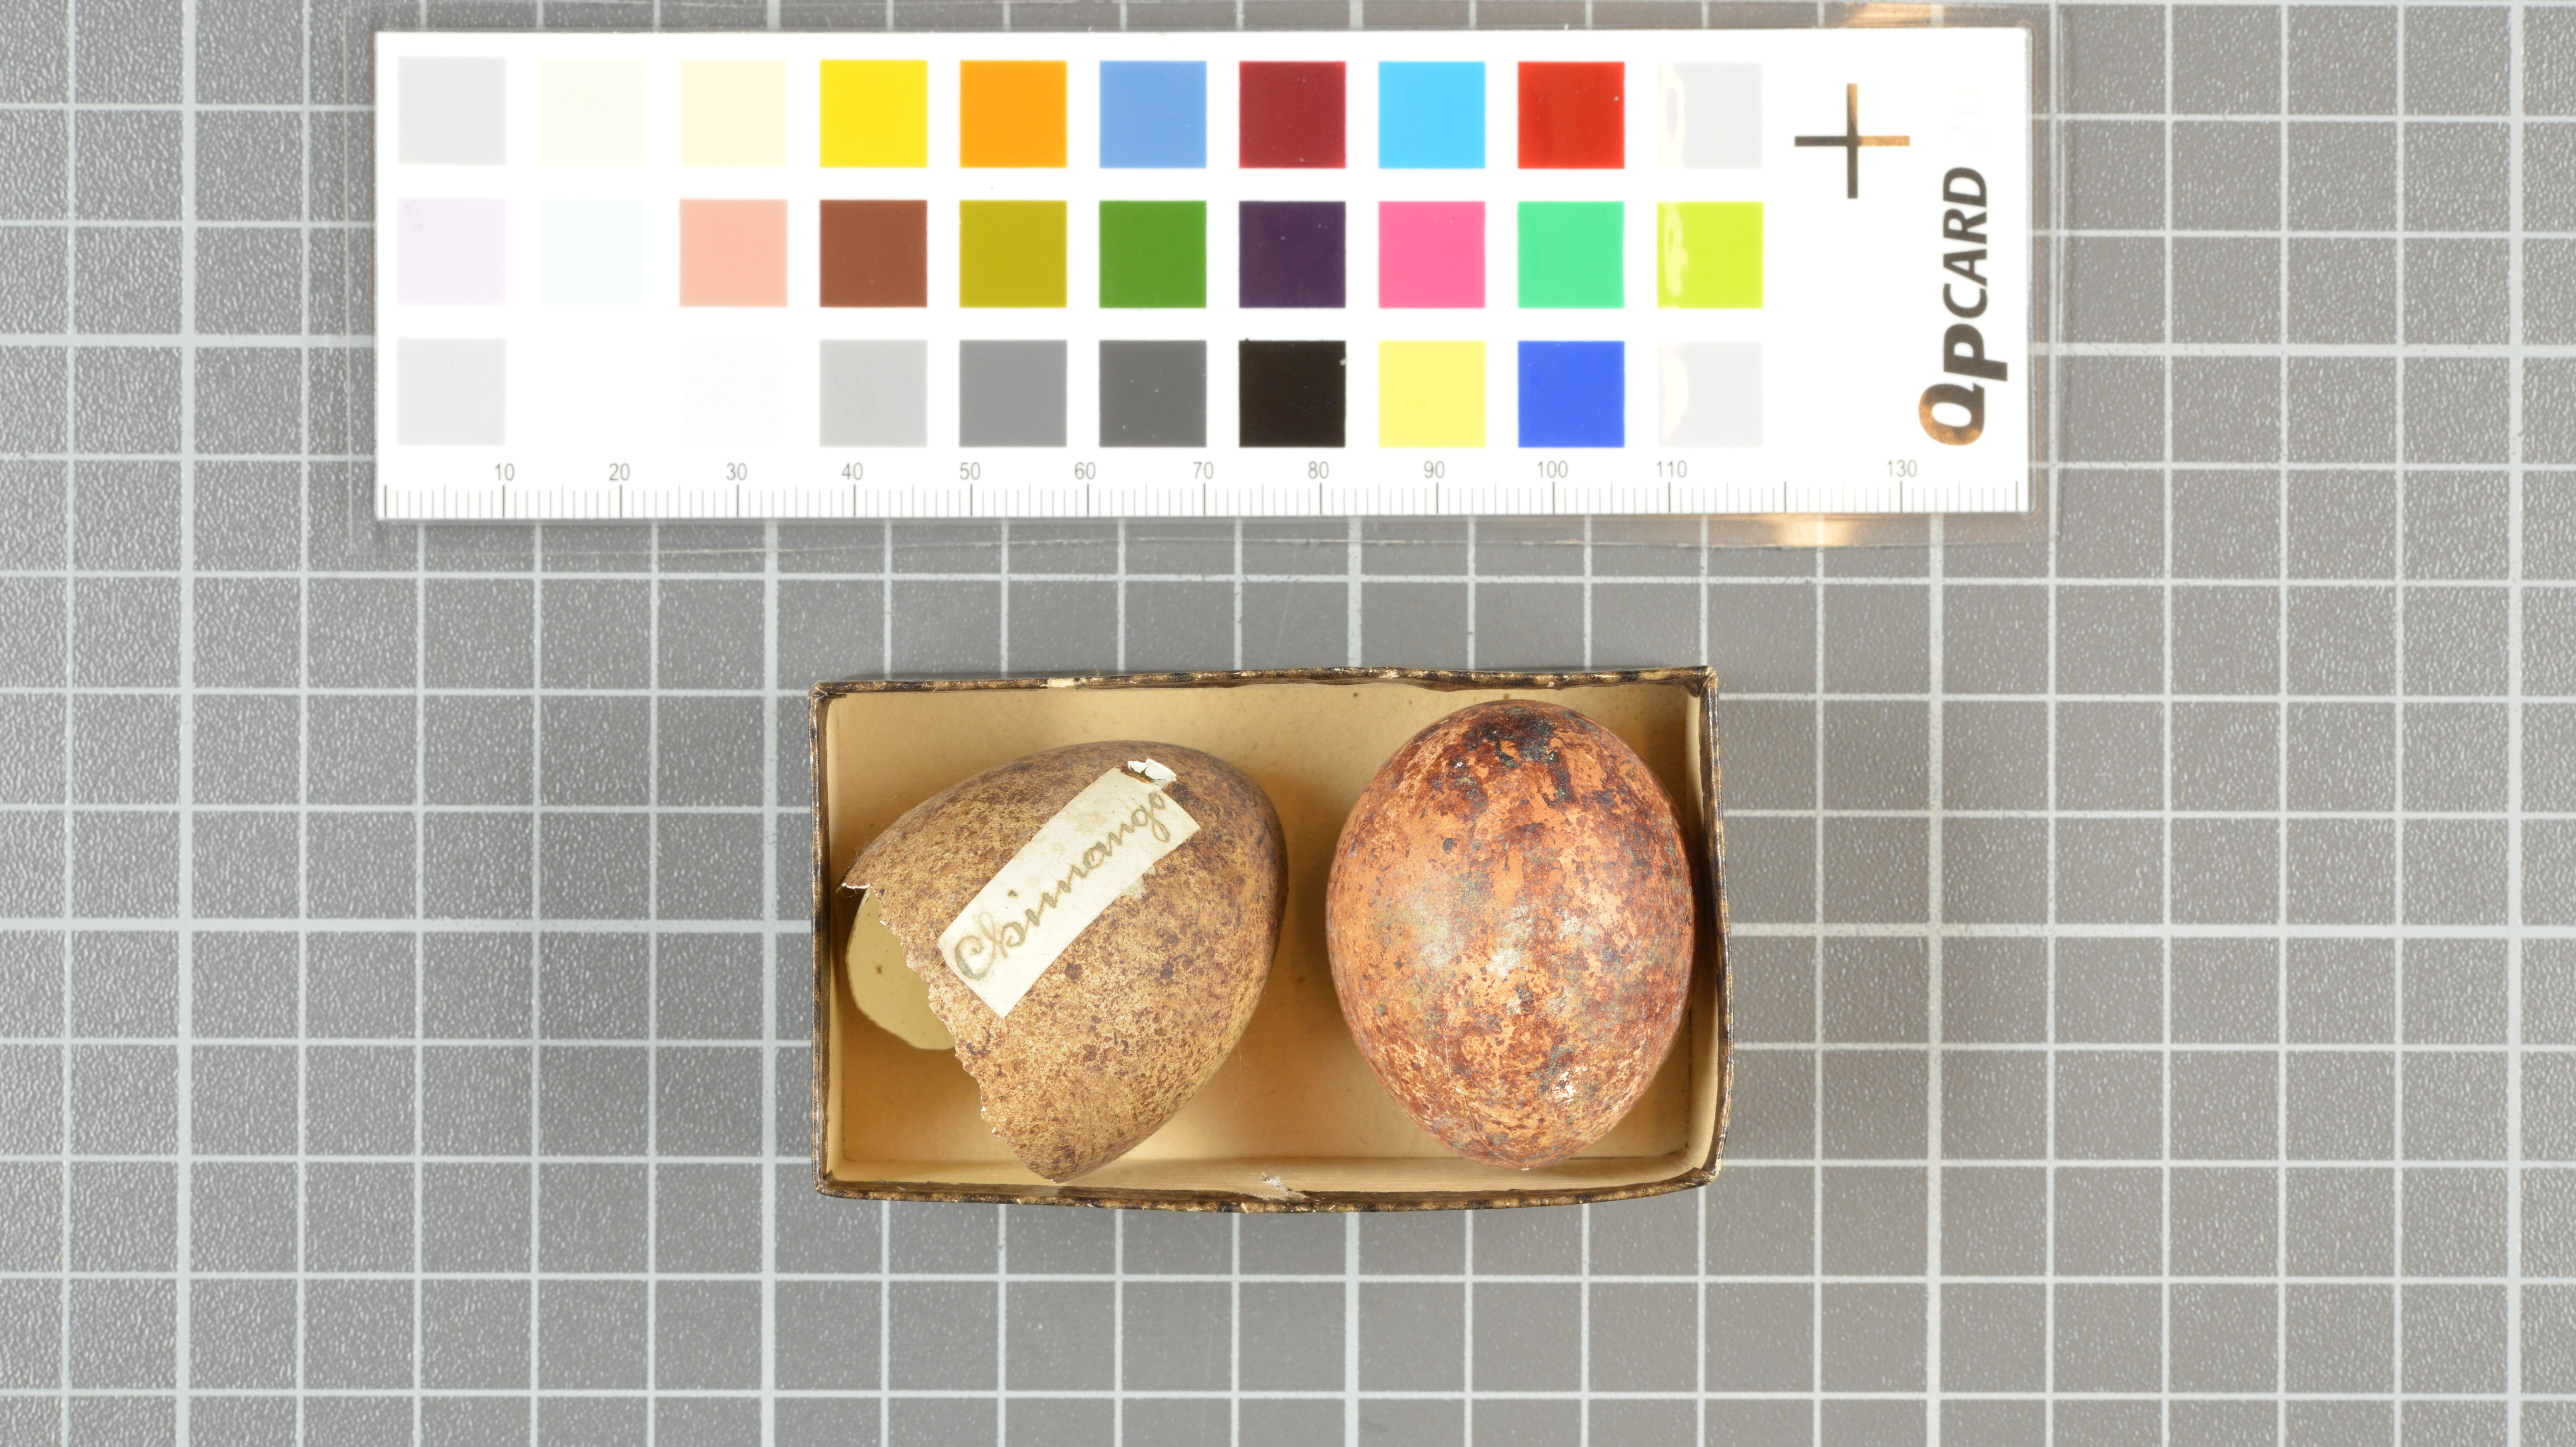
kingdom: Animalia
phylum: Chordata
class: Aves
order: Falconiformes
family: Falconidae
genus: Milvago
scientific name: Milvago chimango
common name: Chimango caracara
